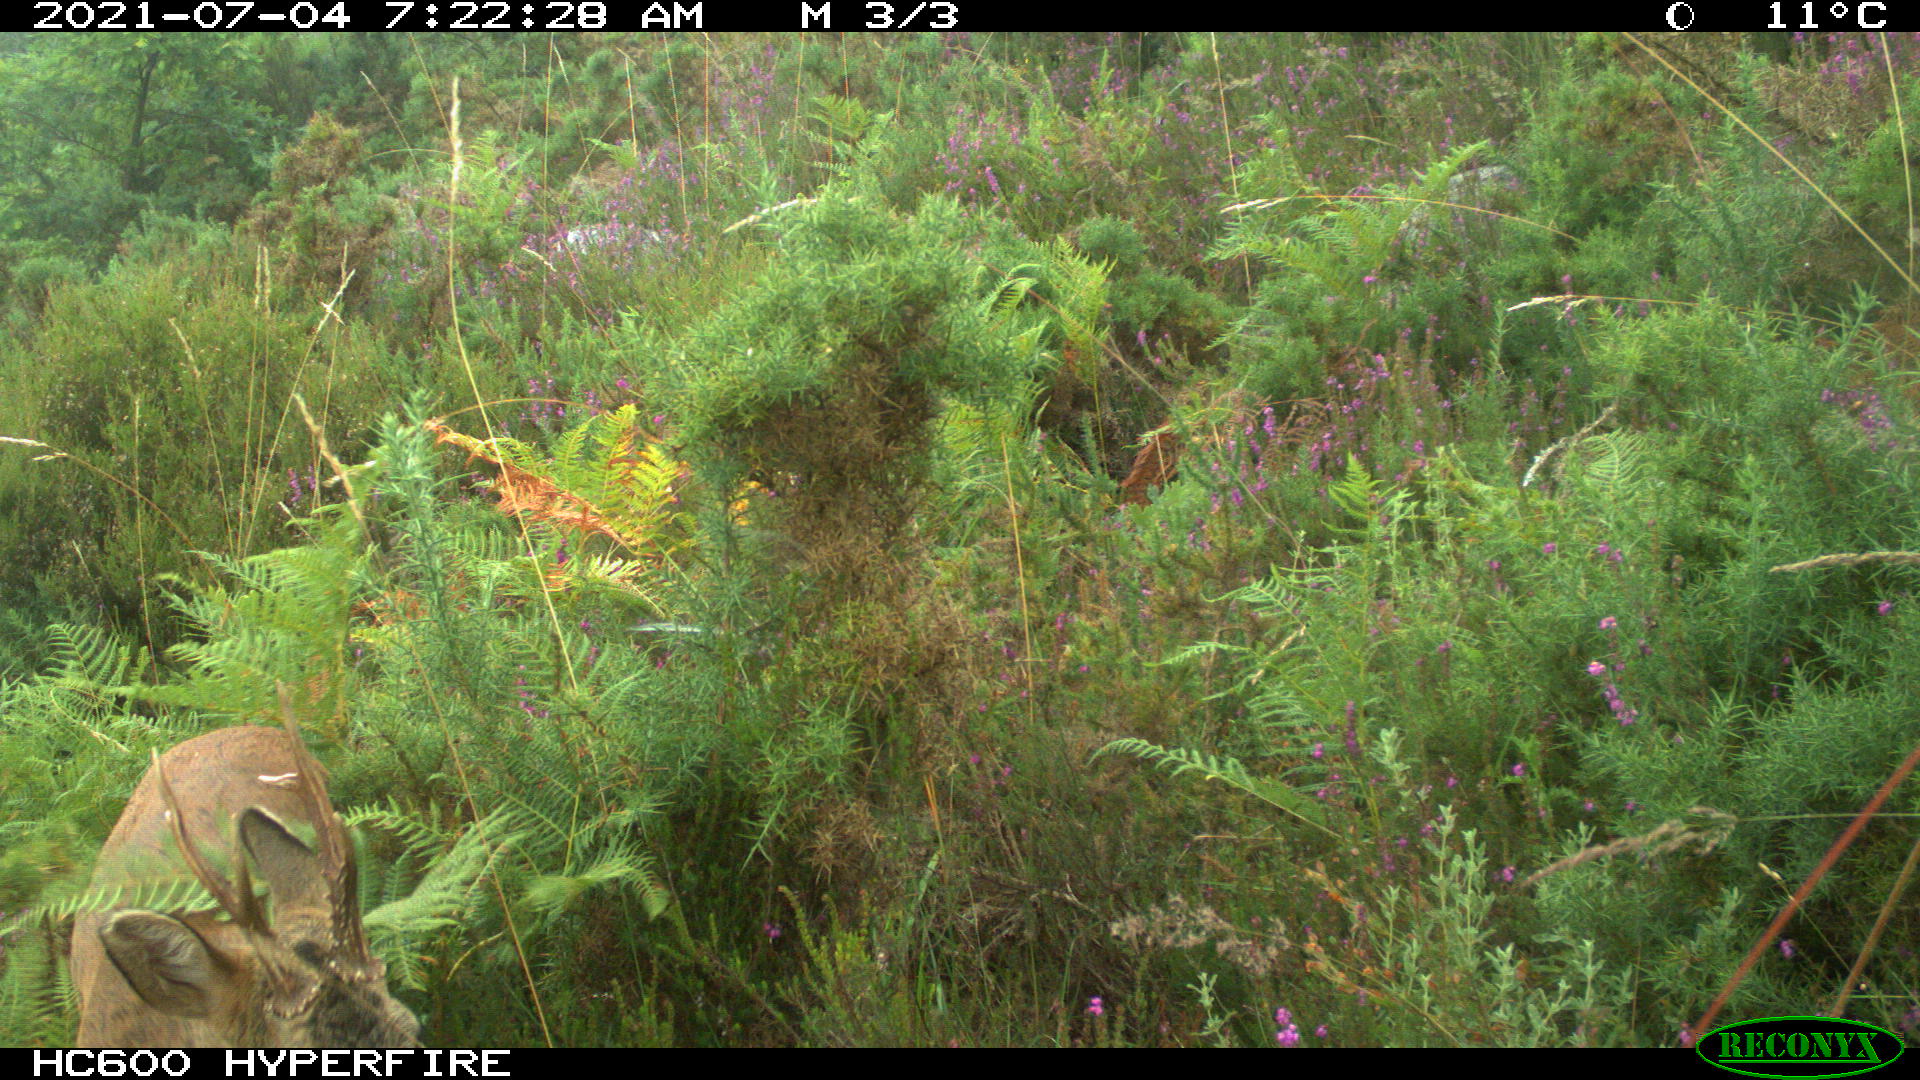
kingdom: Animalia
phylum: Chordata
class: Mammalia
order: Artiodactyla
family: Cervidae
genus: Capreolus
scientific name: Capreolus capreolus
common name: Western roe deer
